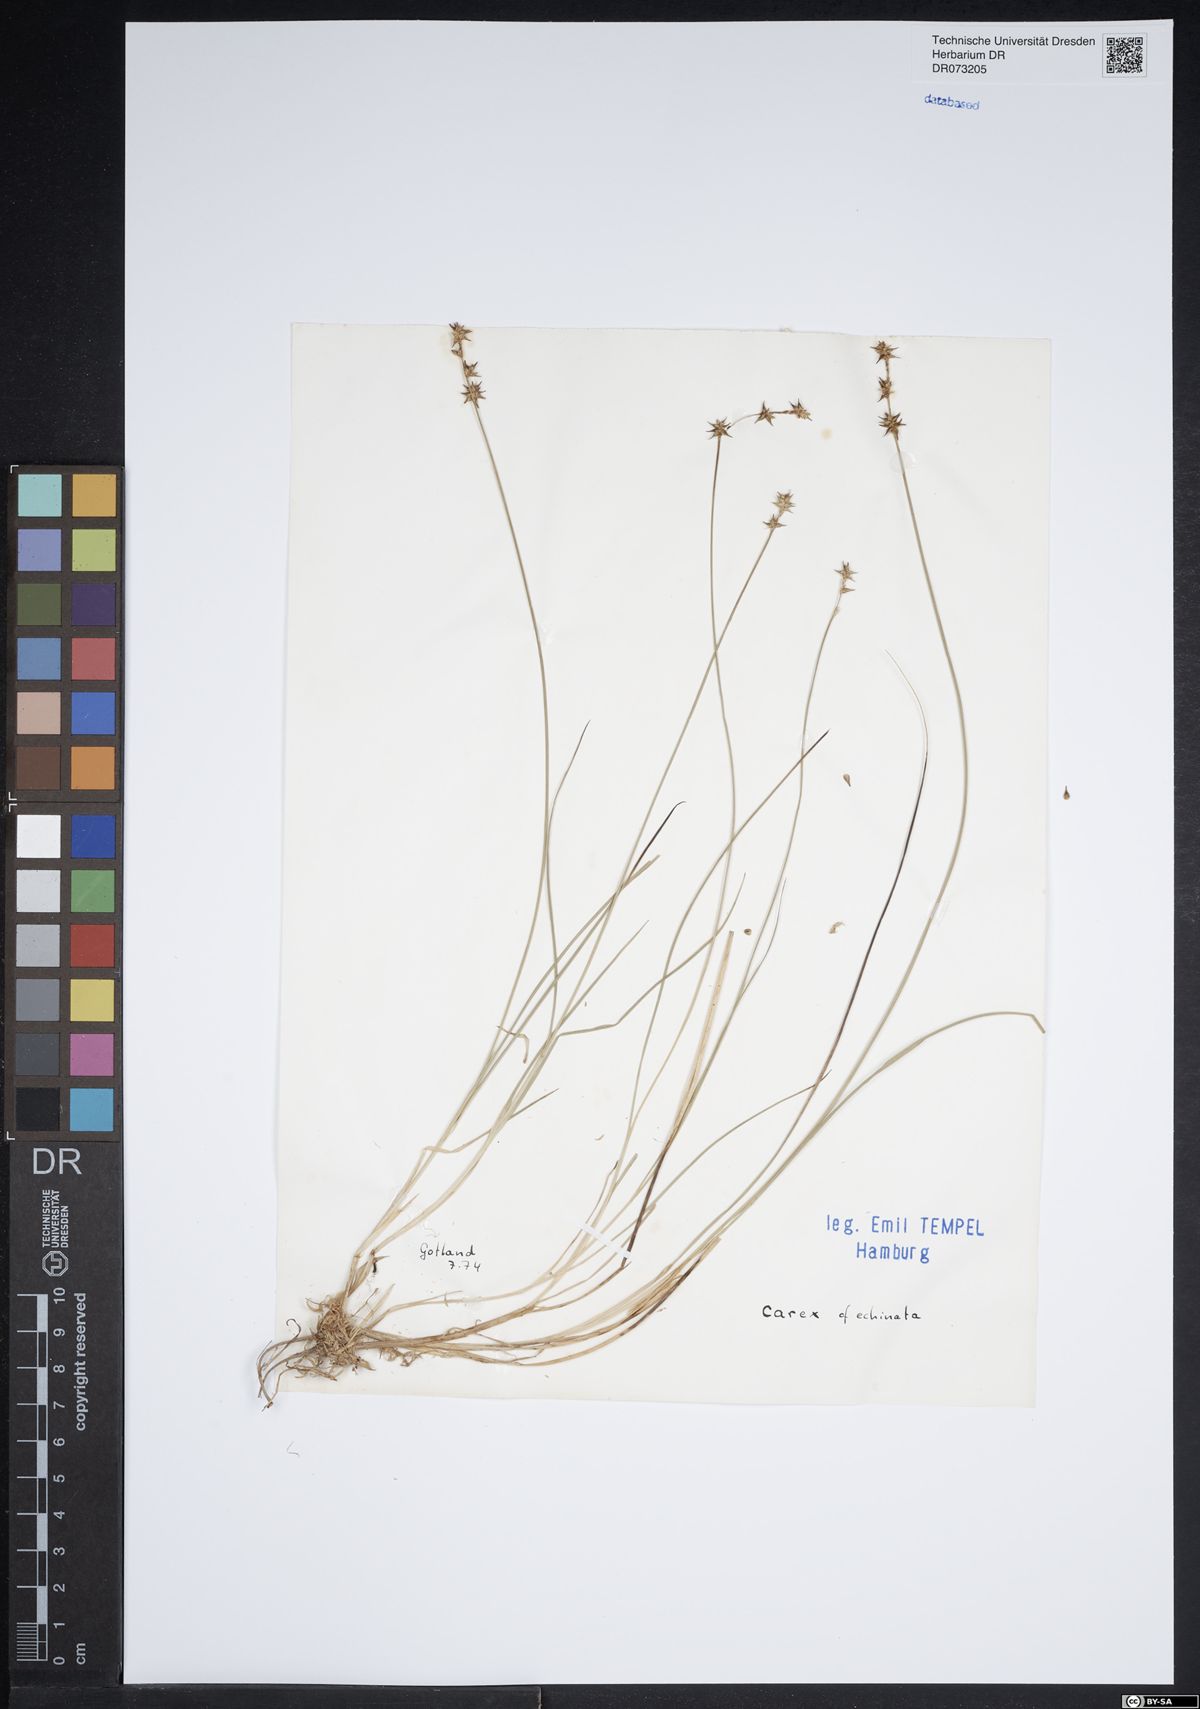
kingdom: Plantae
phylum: Tracheophyta
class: Liliopsida
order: Poales
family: Cyperaceae
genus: Carex
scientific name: Carex echinata
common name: Star sedge
